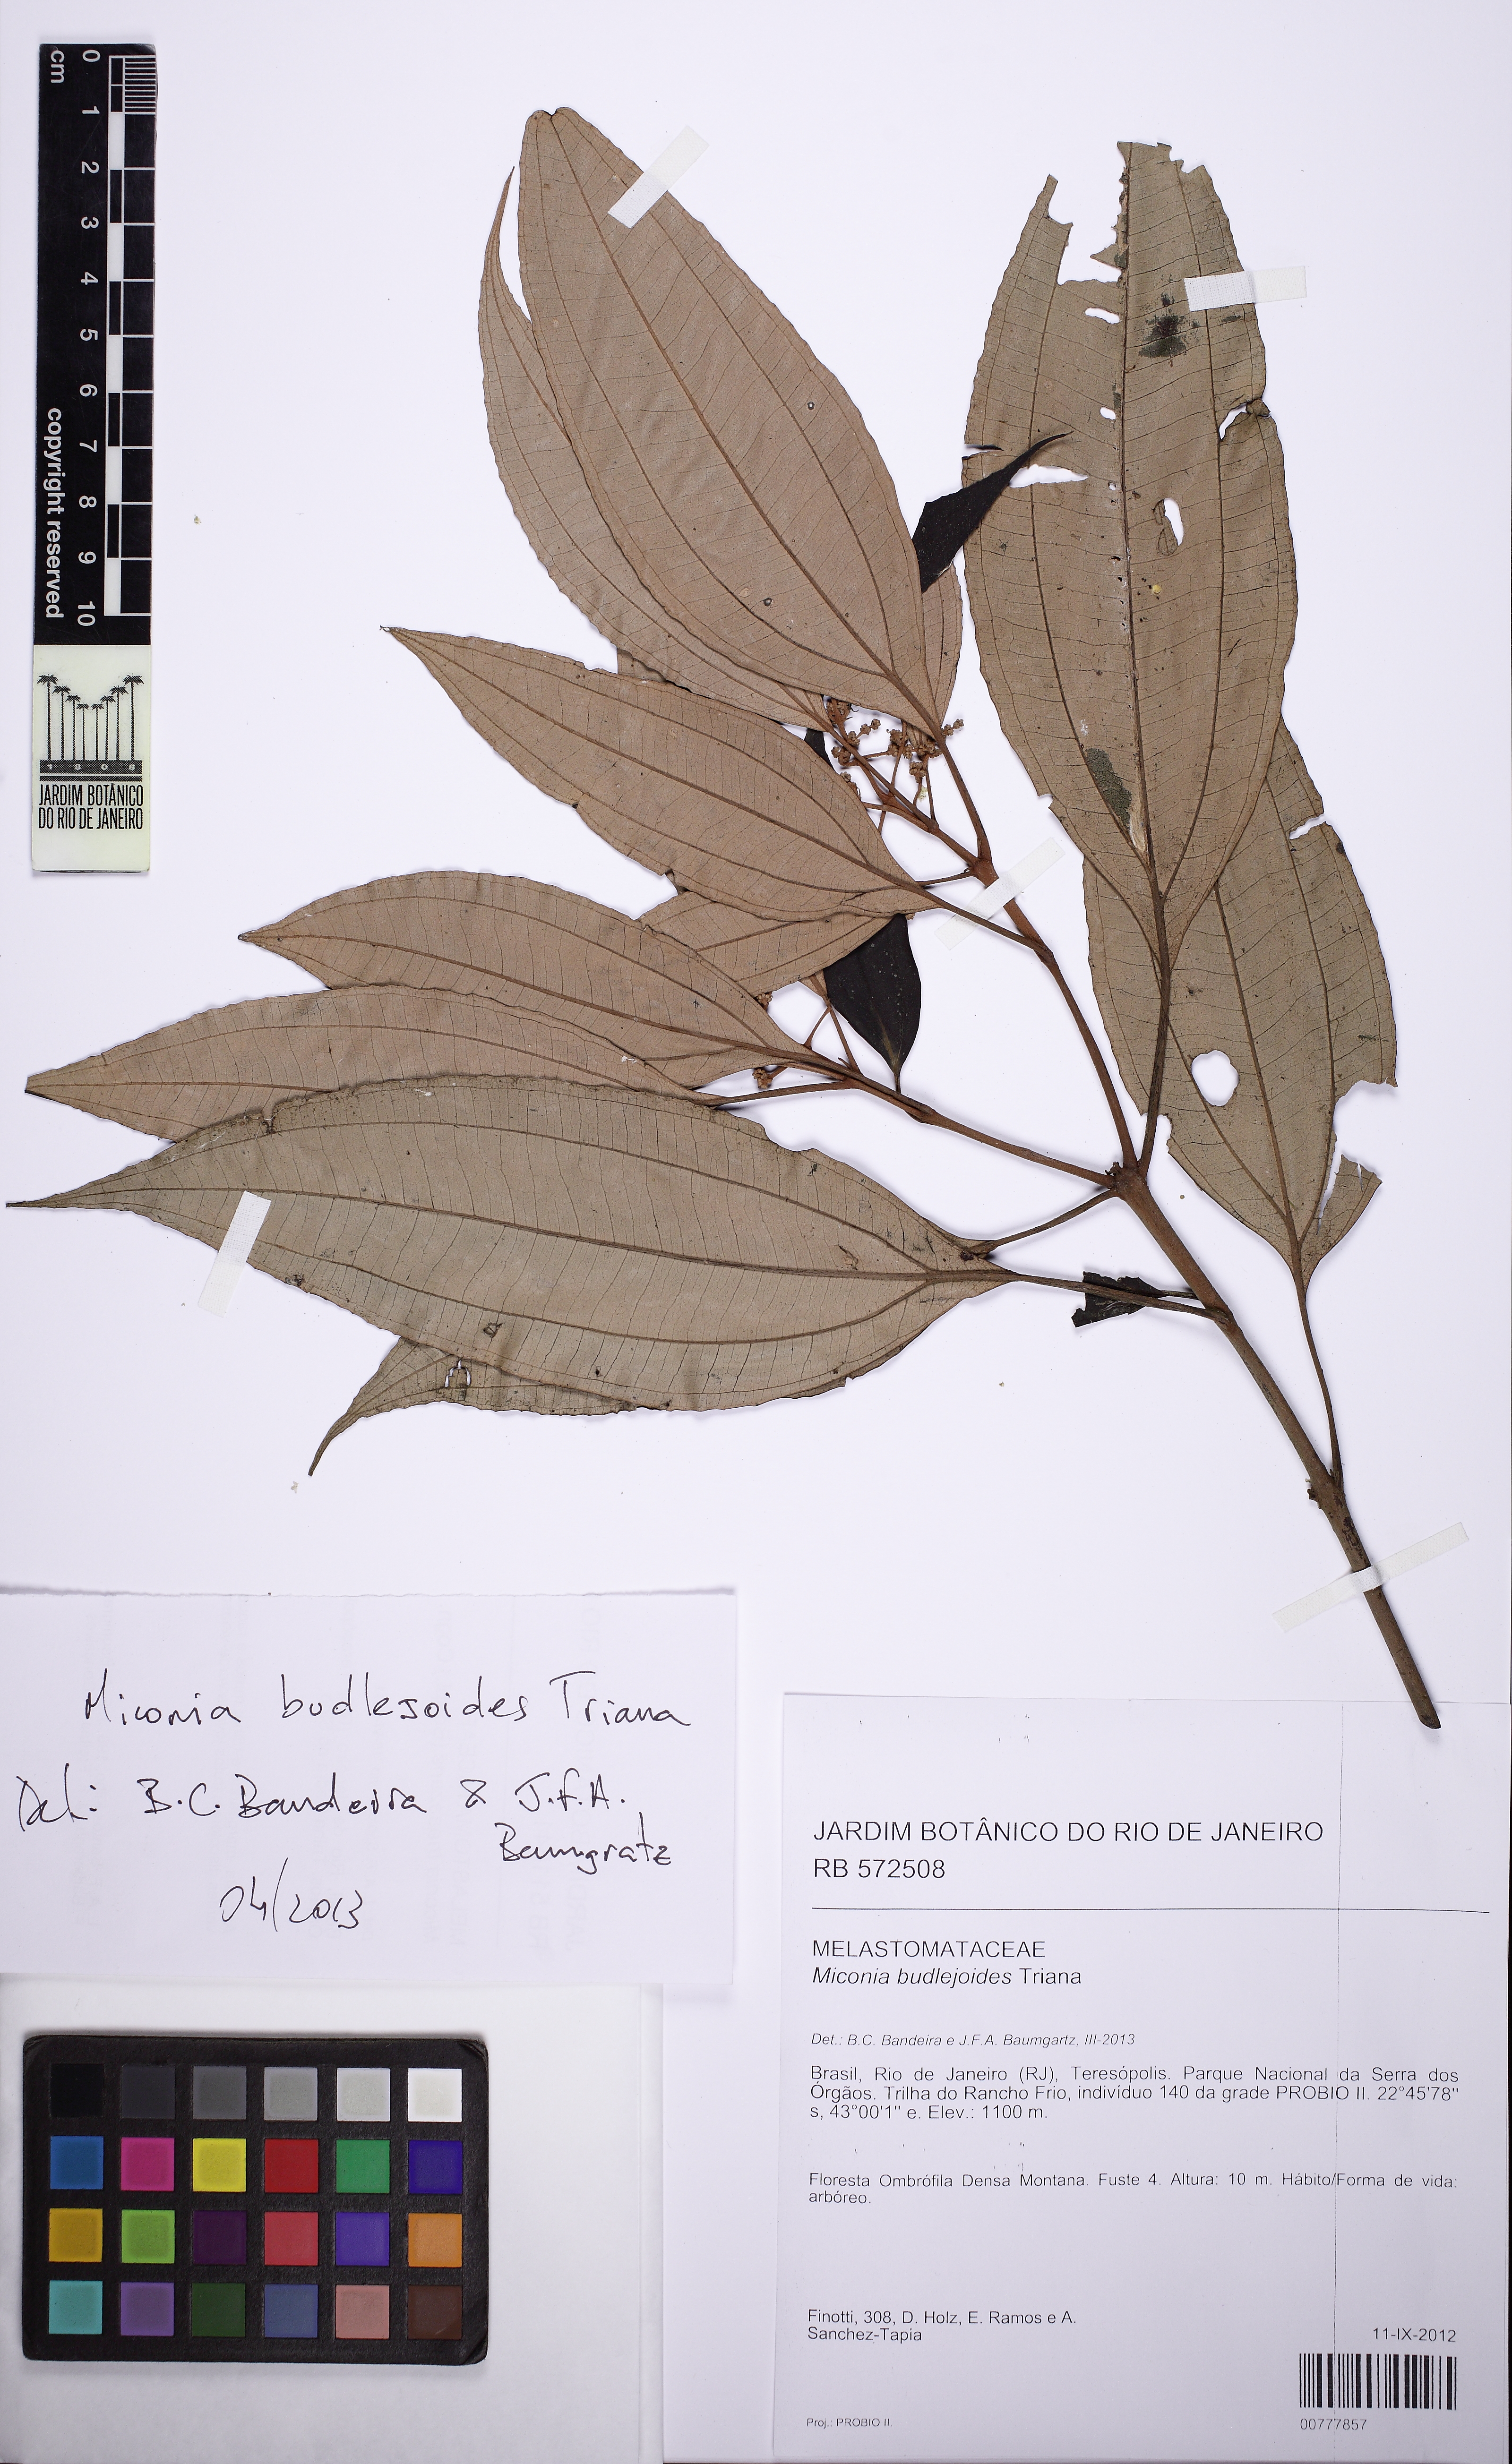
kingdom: Plantae
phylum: Tracheophyta
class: Magnoliopsida
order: Myrtales
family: Melastomataceae
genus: Miconia
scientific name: Miconia buddlejoides
